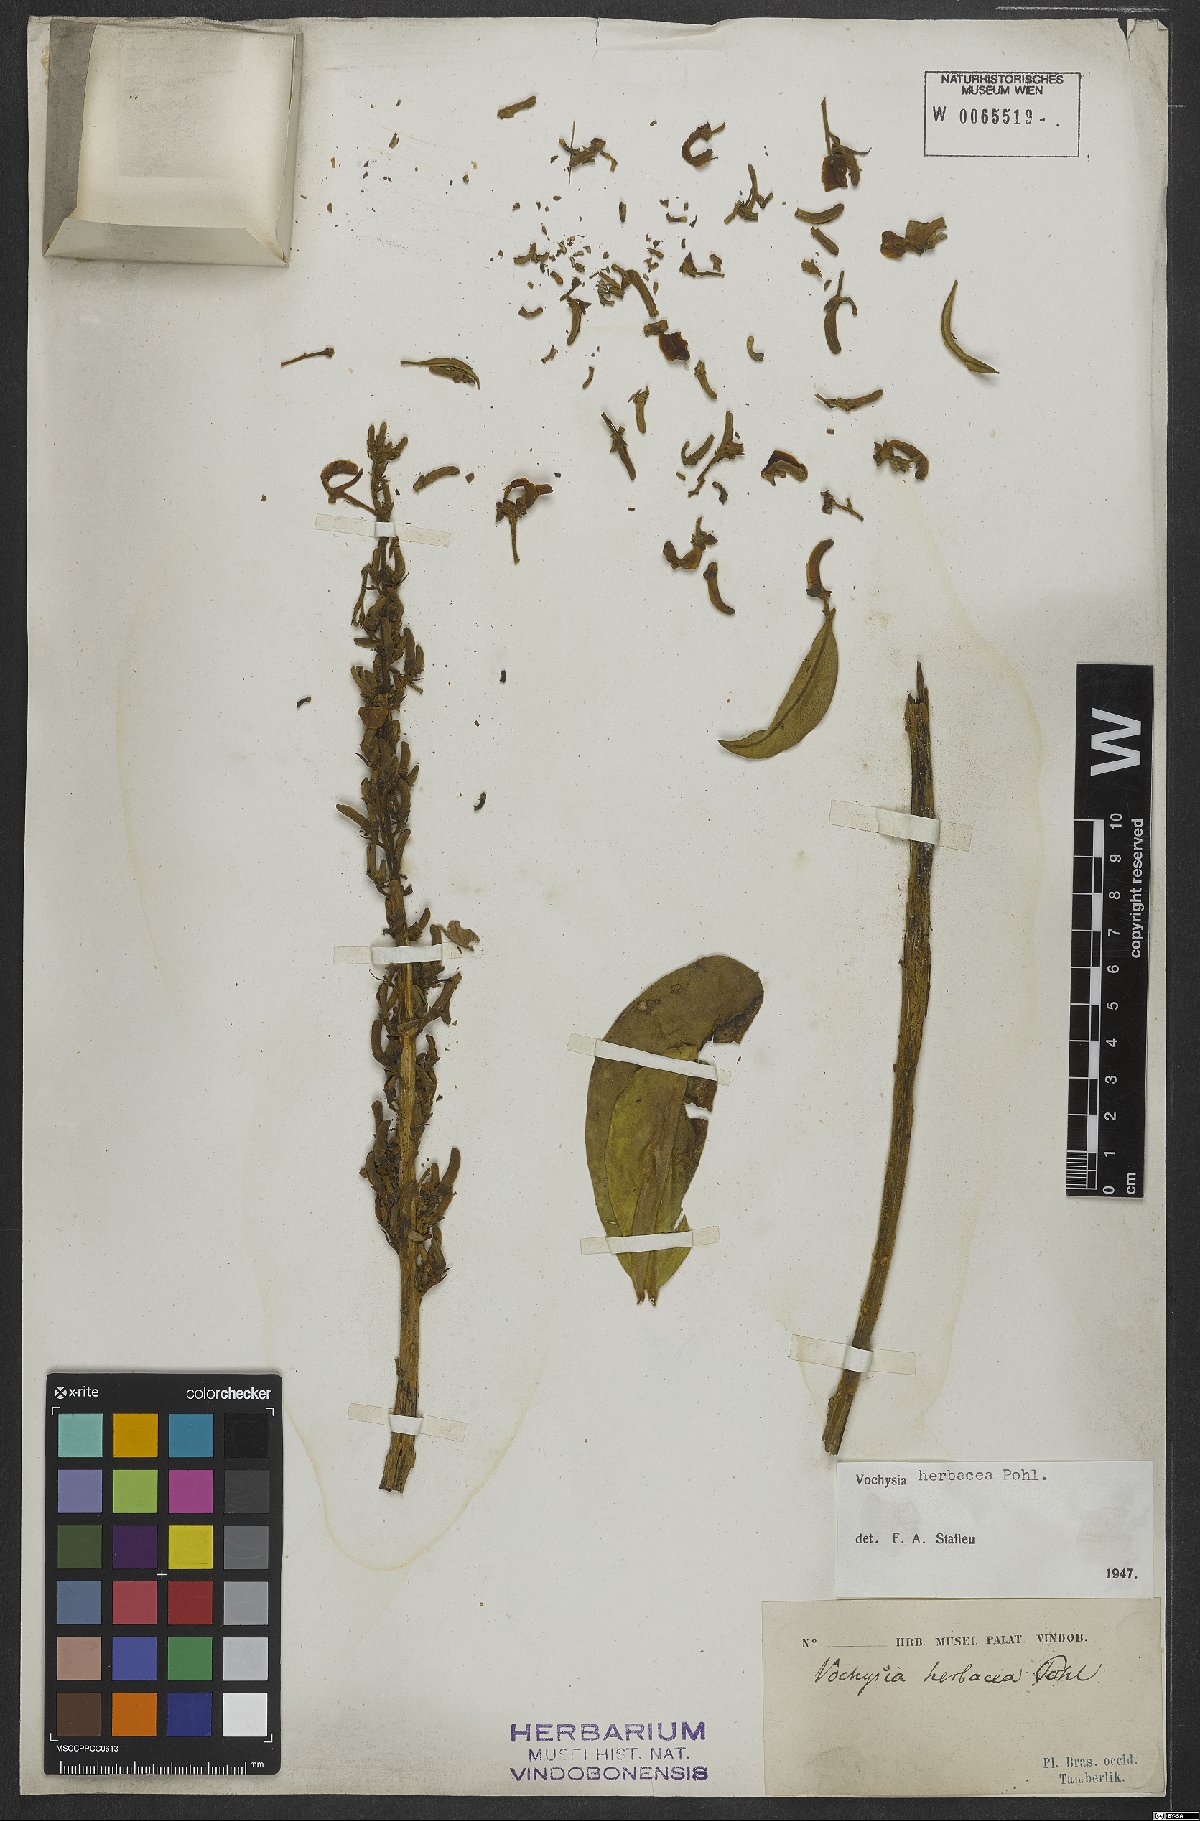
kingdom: Plantae
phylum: Tracheophyta
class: Magnoliopsida
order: Myrtales
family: Vochysiaceae
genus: Vochysia
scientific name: Vochysia herbacea
